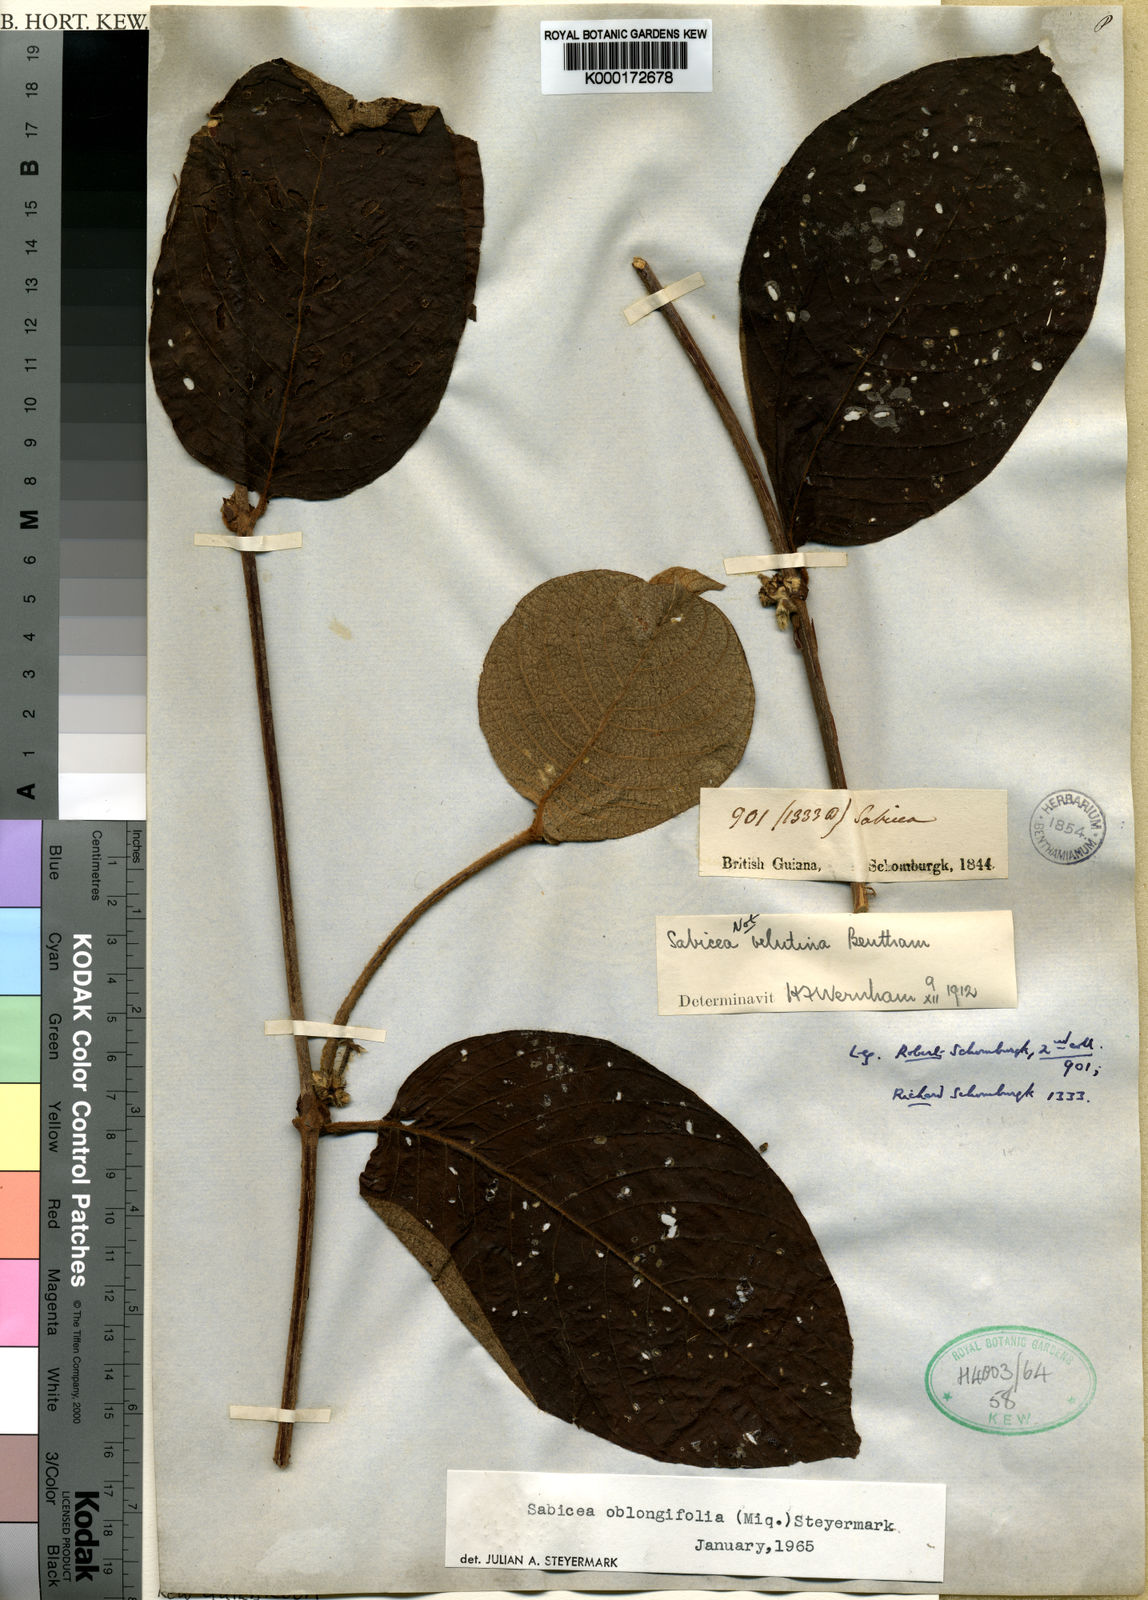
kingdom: Plantae
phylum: Tracheophyta
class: Magnoliopsida
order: Gentianales
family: Rubiaceae
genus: Sabicea
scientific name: Sabicea velutina
